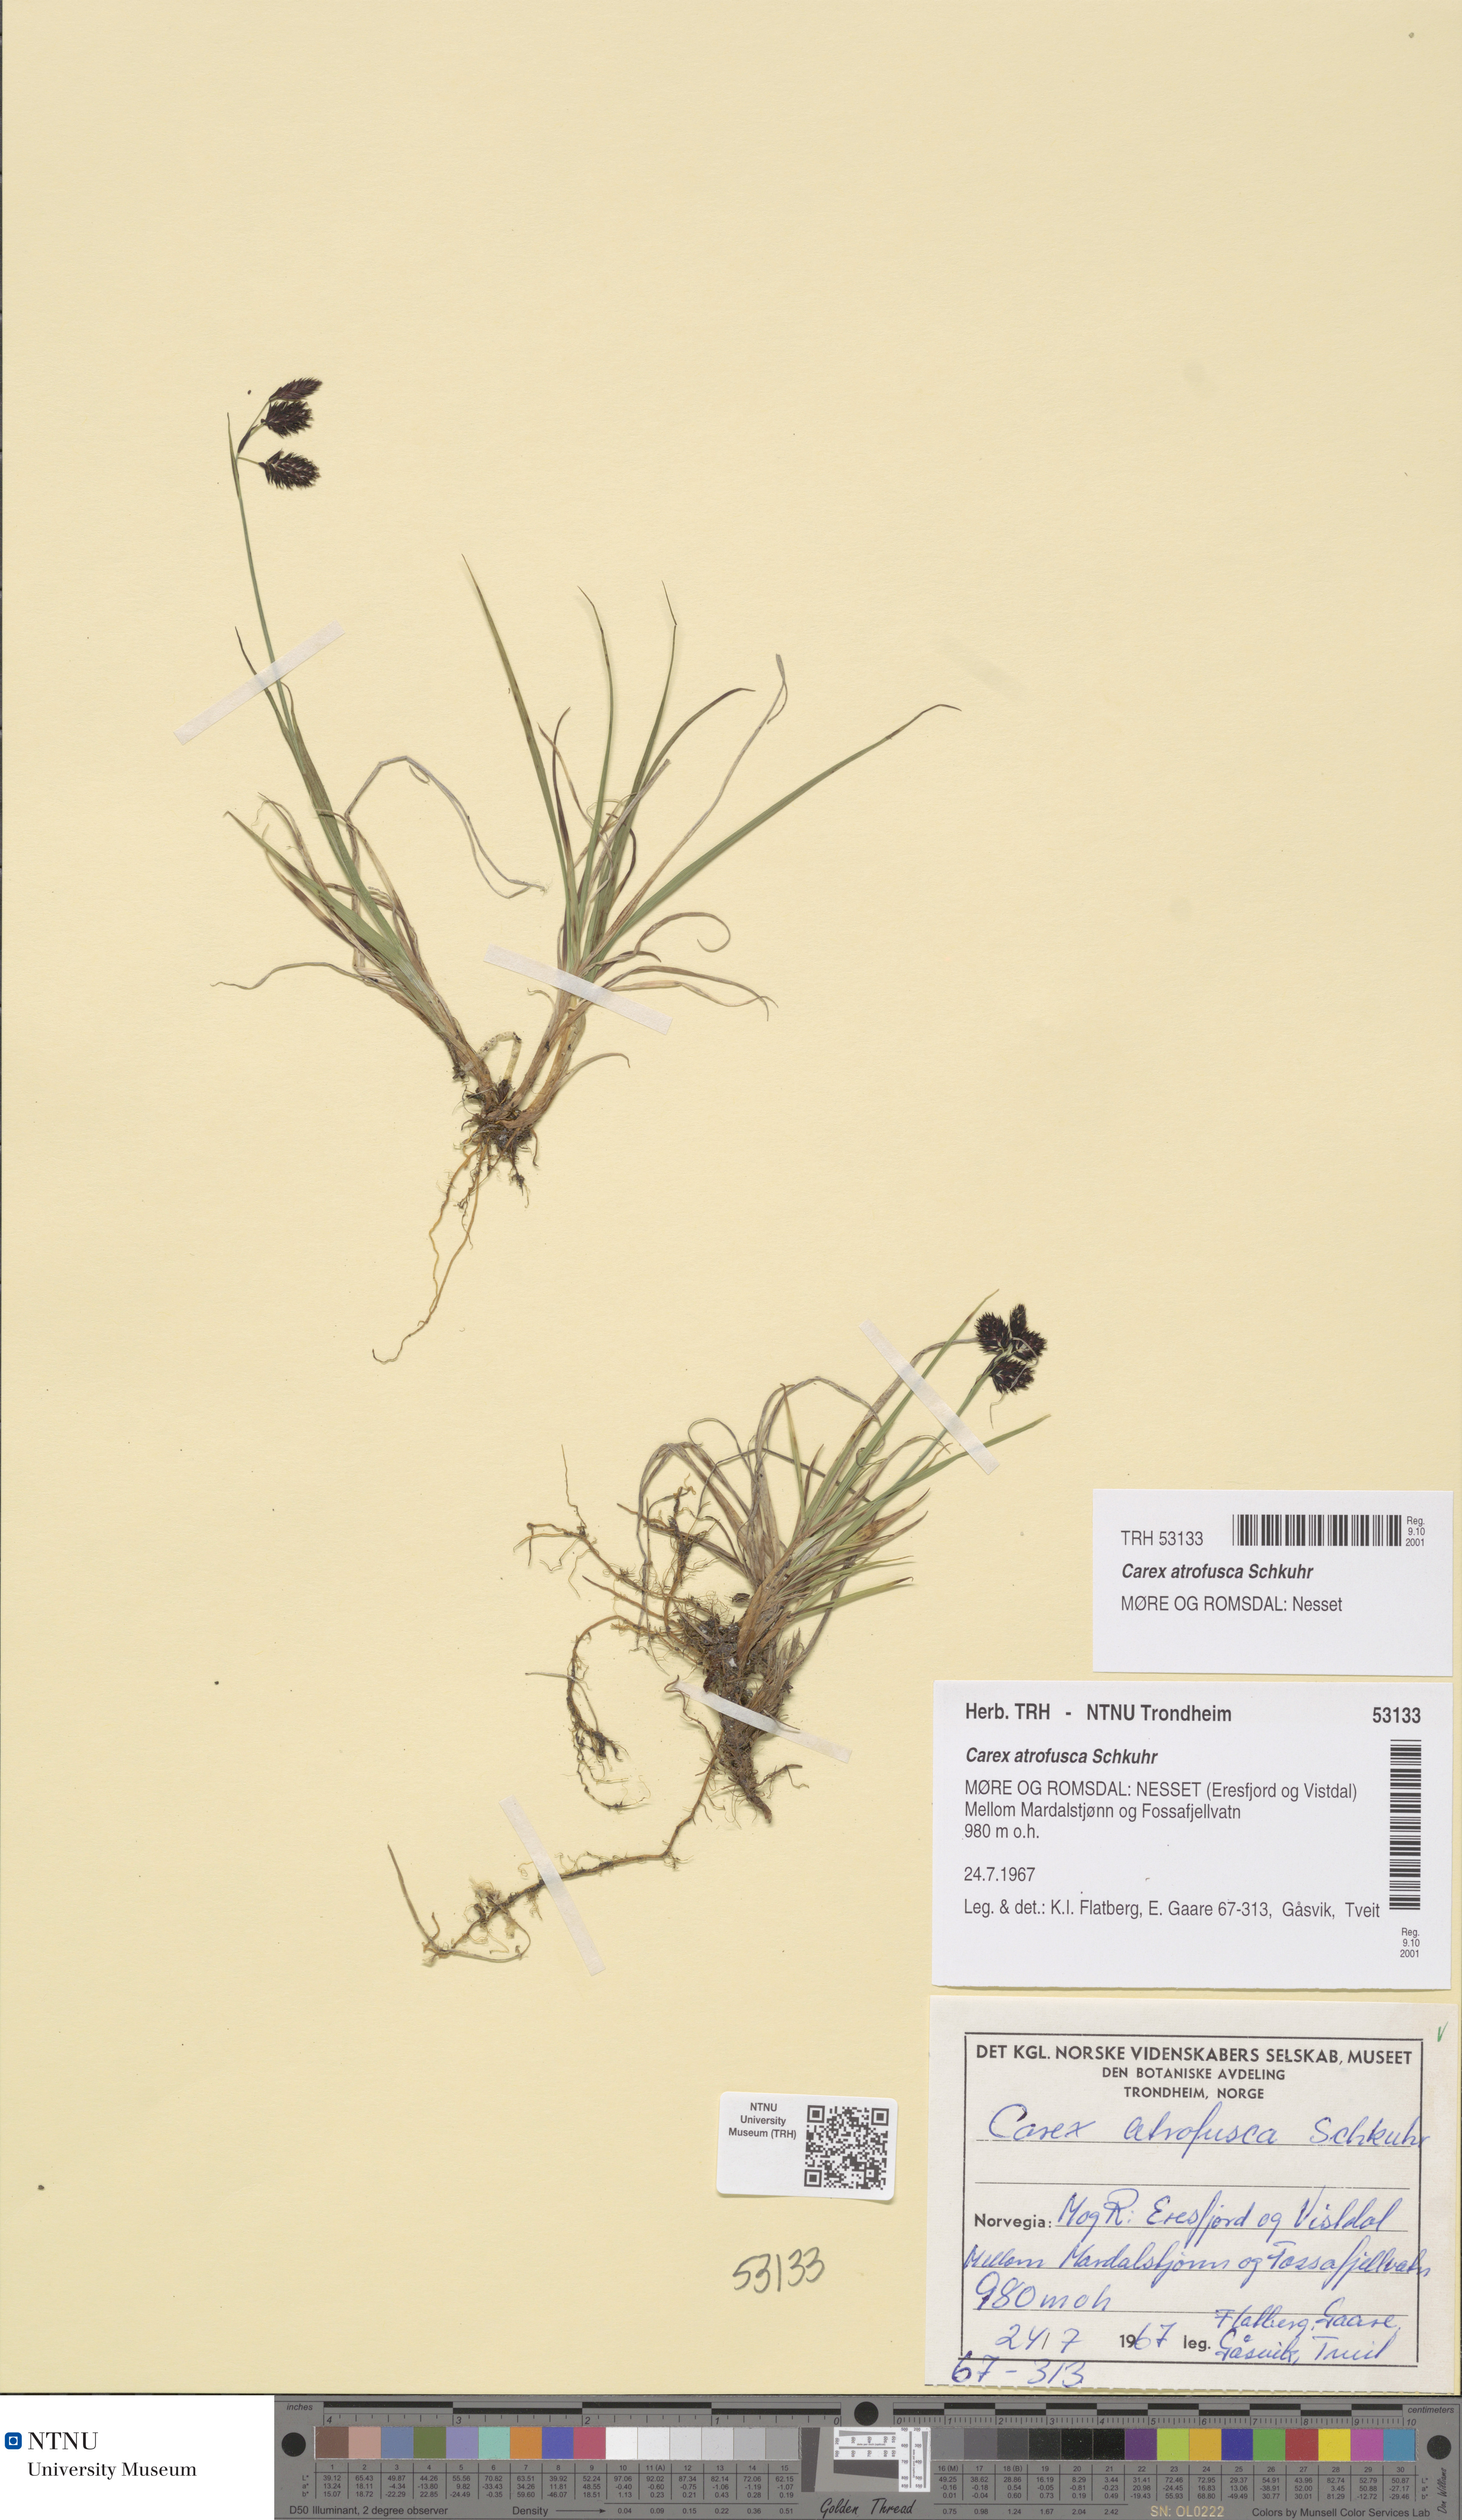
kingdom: Plantae
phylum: Tracheophyta
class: Liliopsida
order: Poales
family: Cyperaceae
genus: Carex
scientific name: Carex atrofusca
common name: Scorched alpine-sedge
